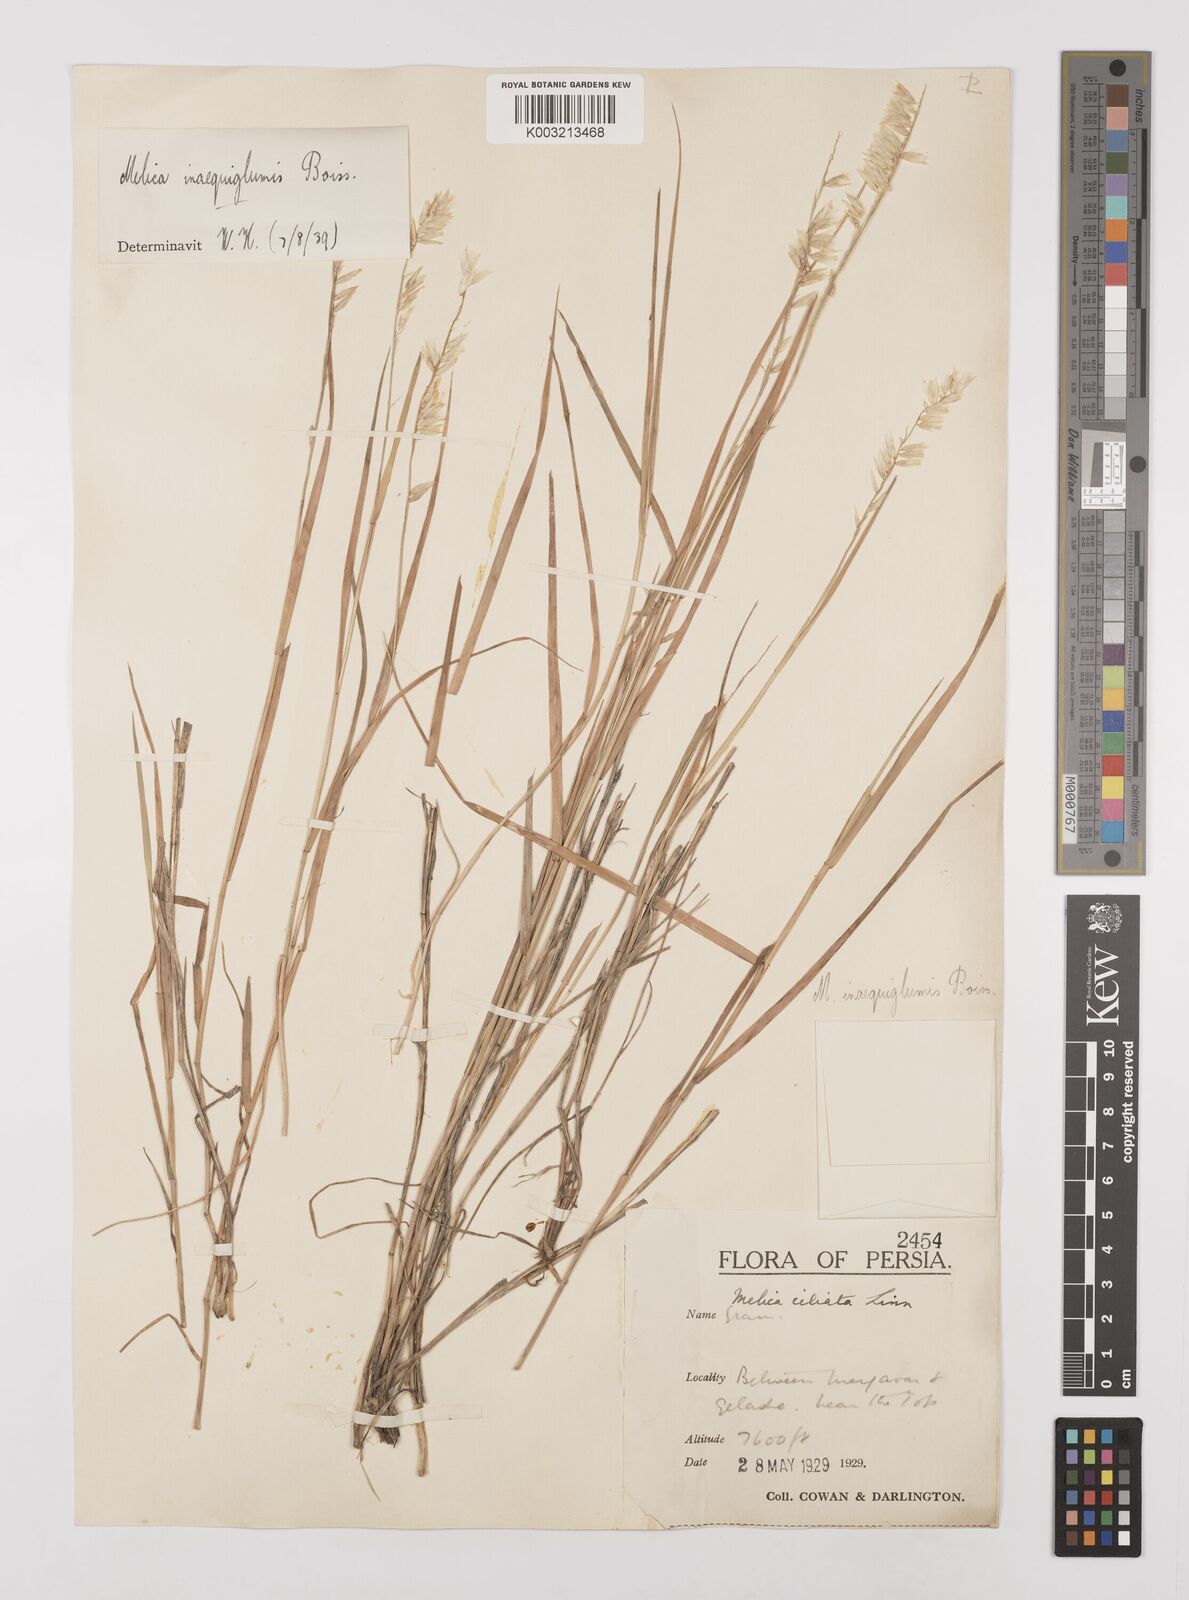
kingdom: Plantae
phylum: Tracheophyta
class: Liliopsida
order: Poales
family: Poaceae
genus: Melica
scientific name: Melica persica
